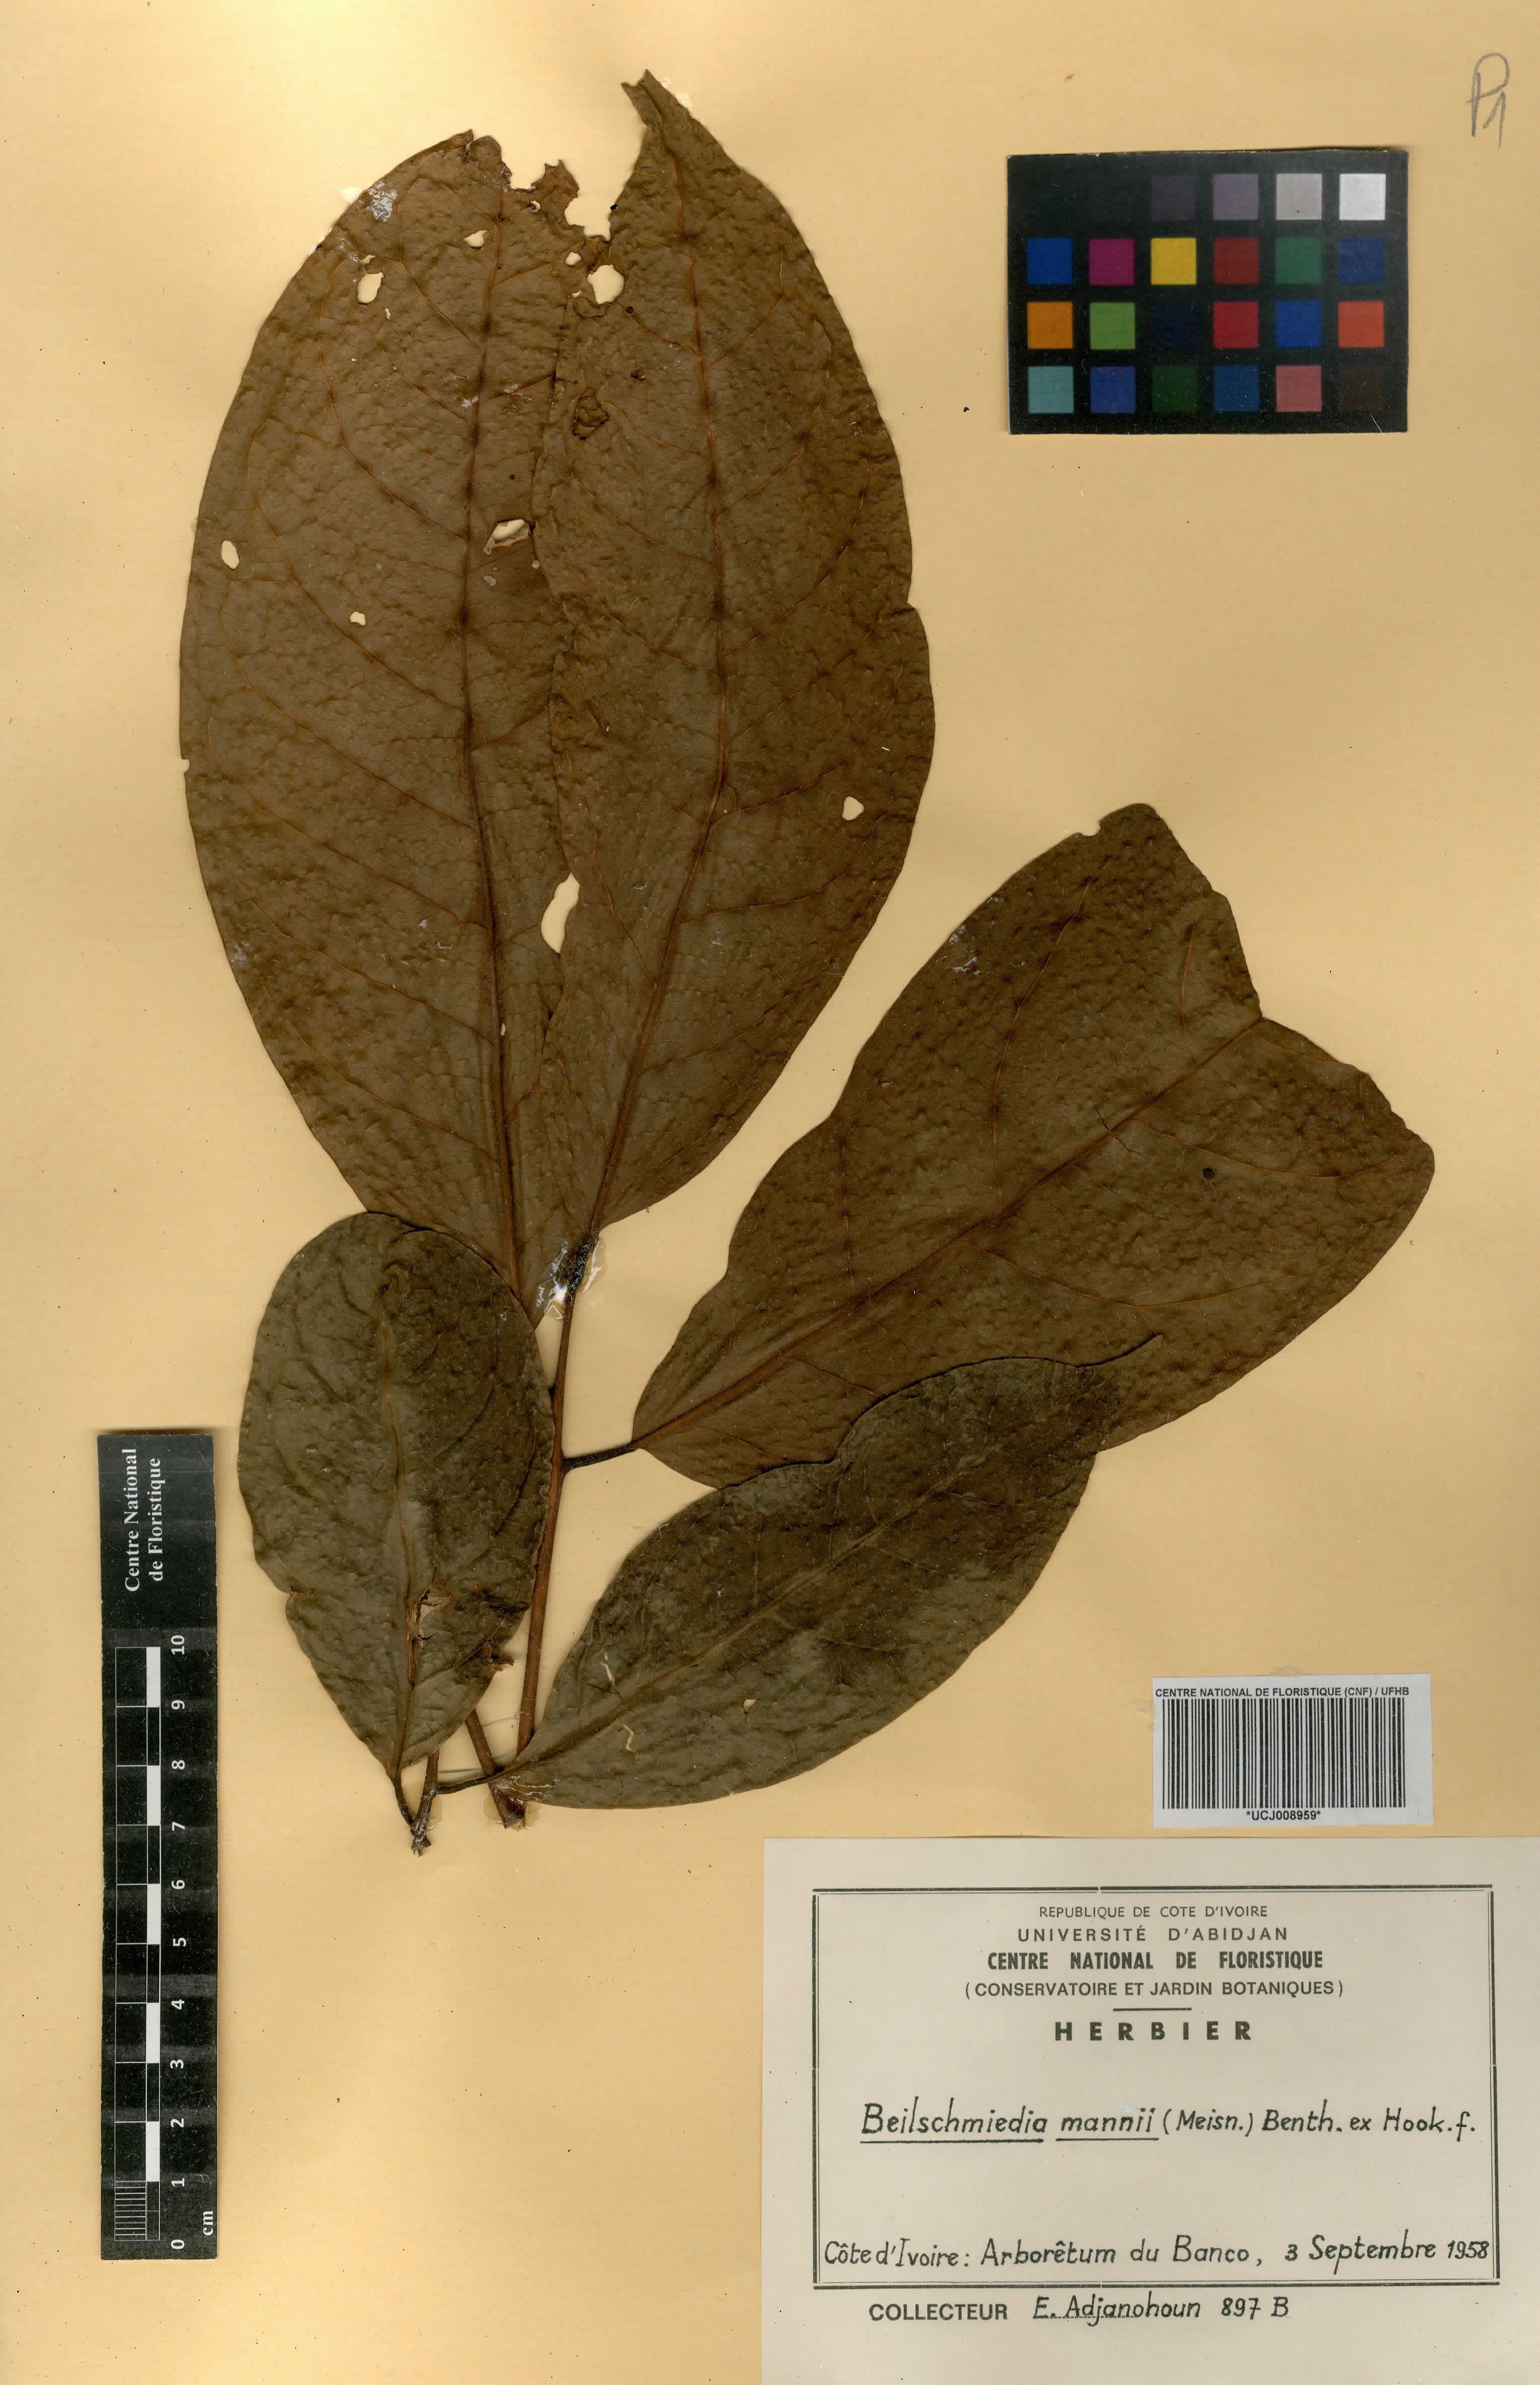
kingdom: Plantae
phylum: Tracheophyta
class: Magnoliopsida
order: Laurales
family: Lauraceae
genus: Beilschmiedia
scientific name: Beilschmiedia mannii
